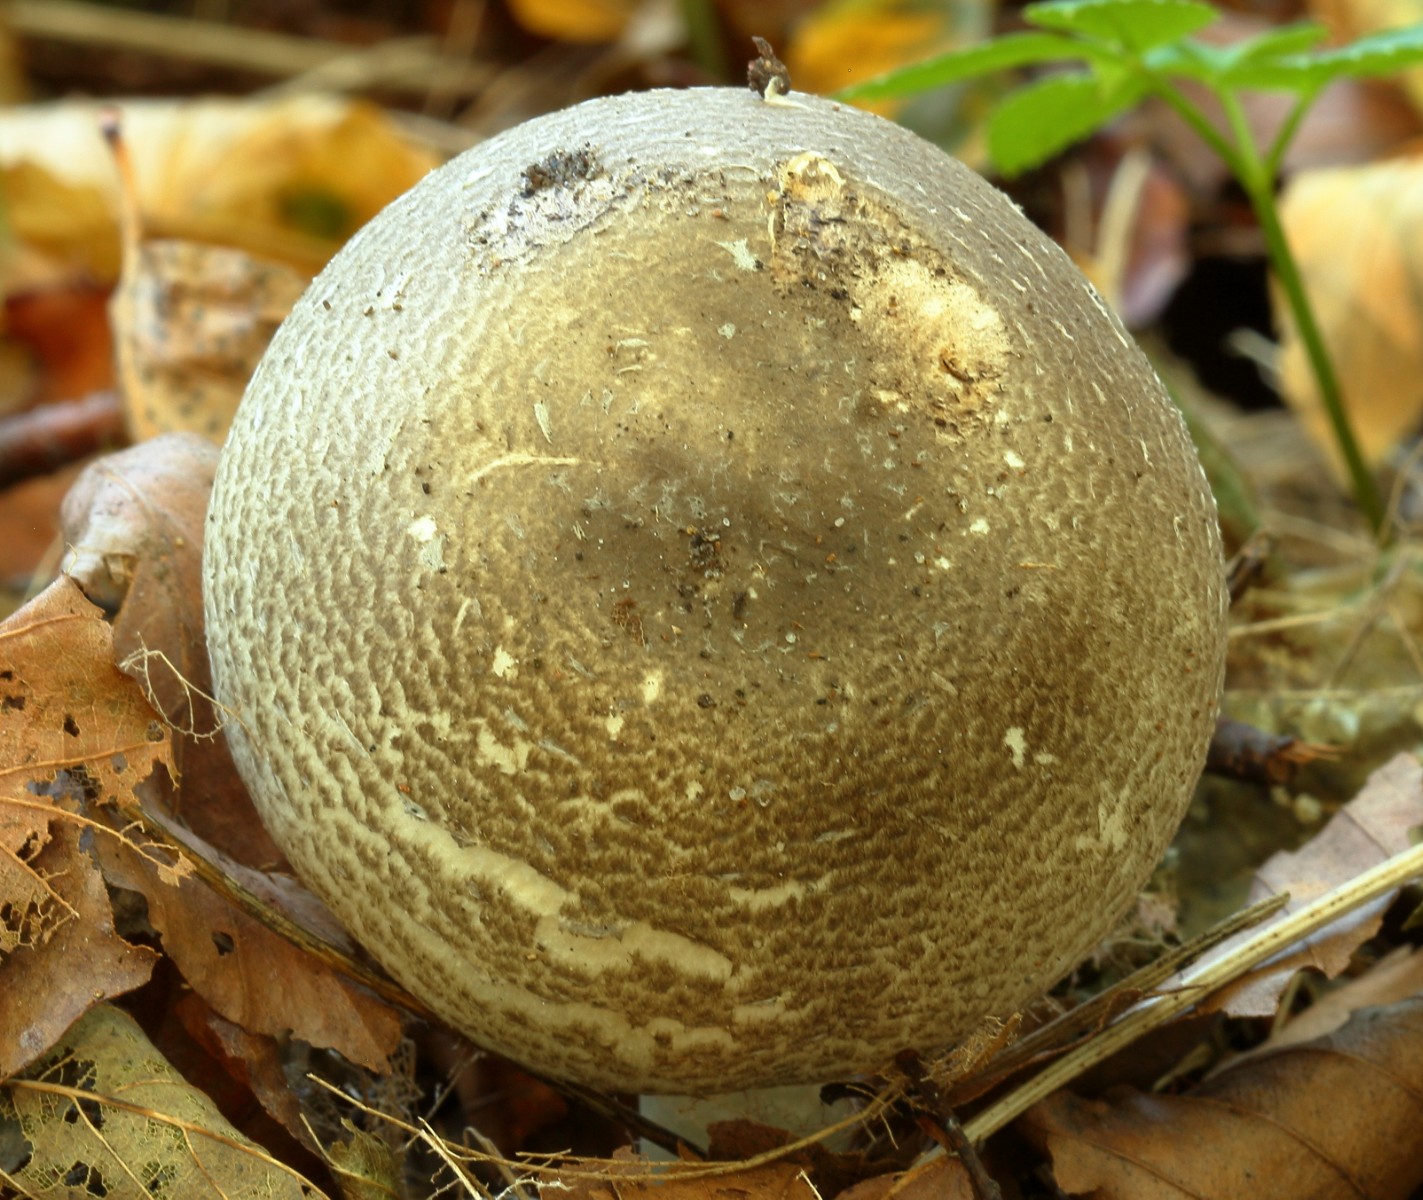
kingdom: Fungi
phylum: Basidiomycota
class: Agaricomycetes
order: Agaricales
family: Agaricaceae
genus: Agaricus
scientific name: Agaricus moelleri
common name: perlehøne-champignon
